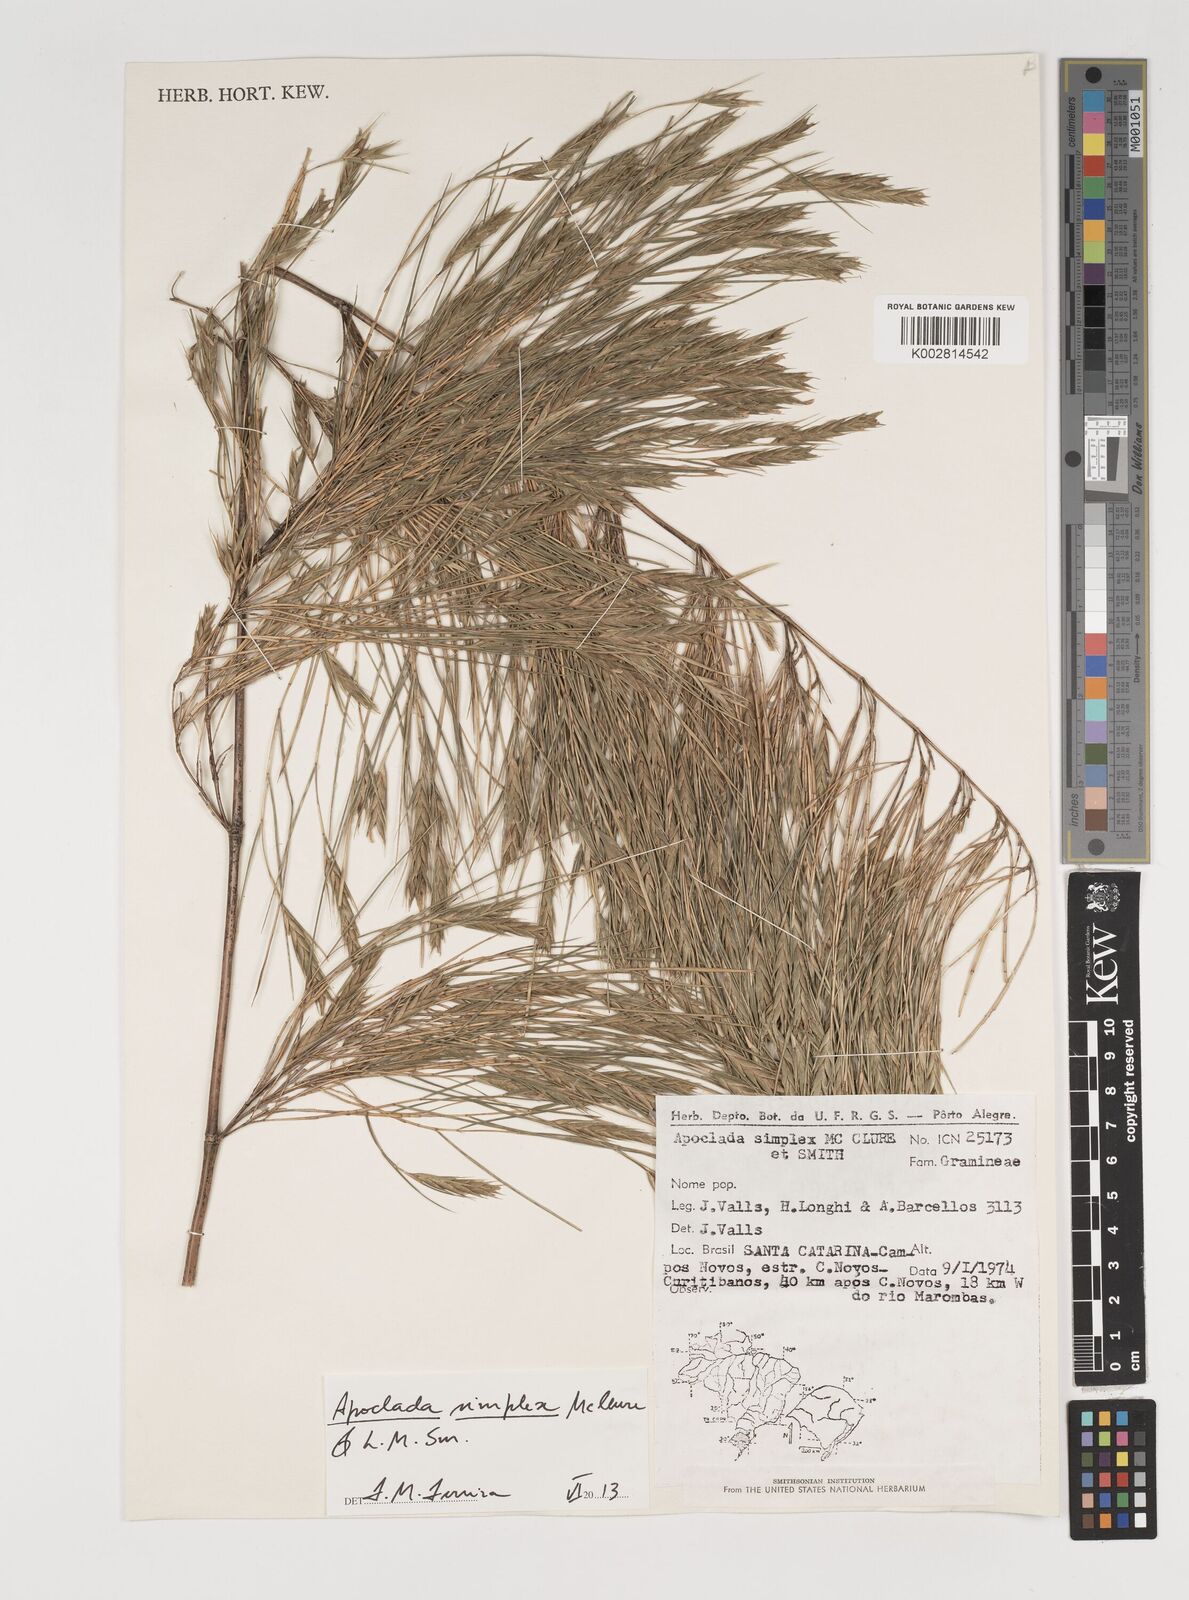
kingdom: Plantae
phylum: Tracheophyta
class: Liliopsida
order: Poales
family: Poaceae
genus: Apoclada
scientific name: Apoclada simplex
